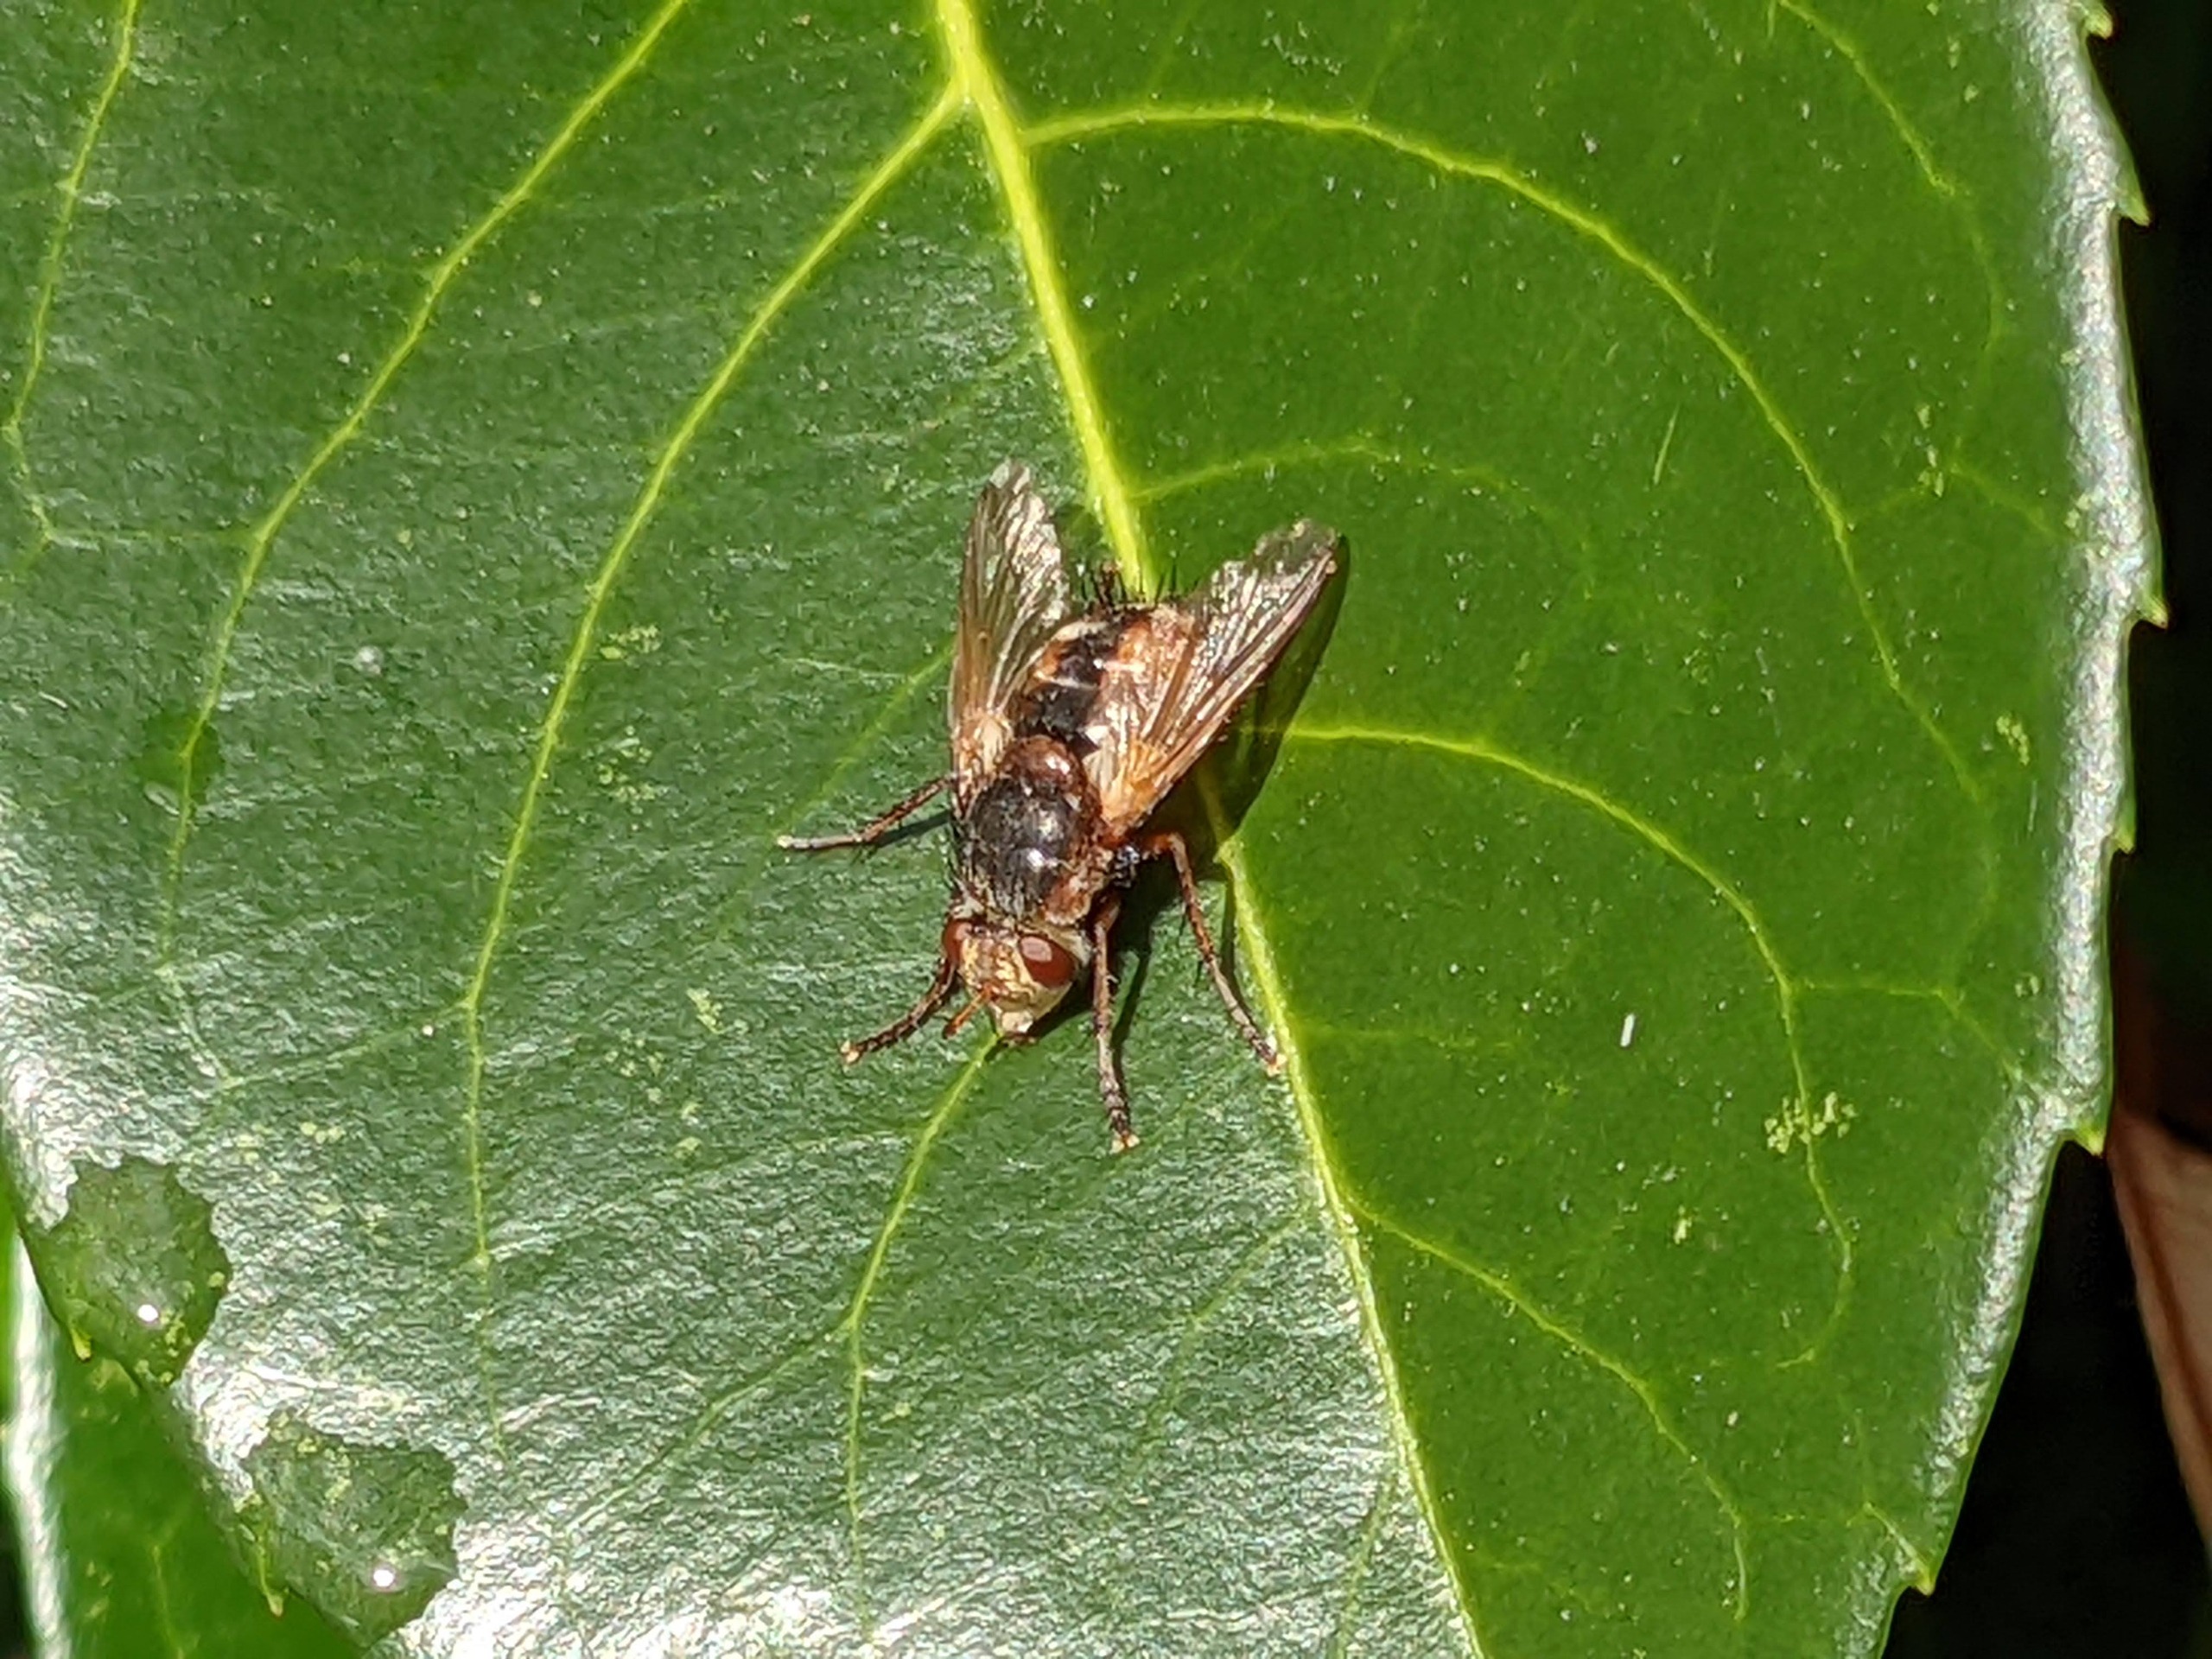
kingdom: Animalia
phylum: Arthropoda
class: Insecta
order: Diptera
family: Tachinidae
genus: Tachina
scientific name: Tachina fera
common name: Mellemfluen oskar
